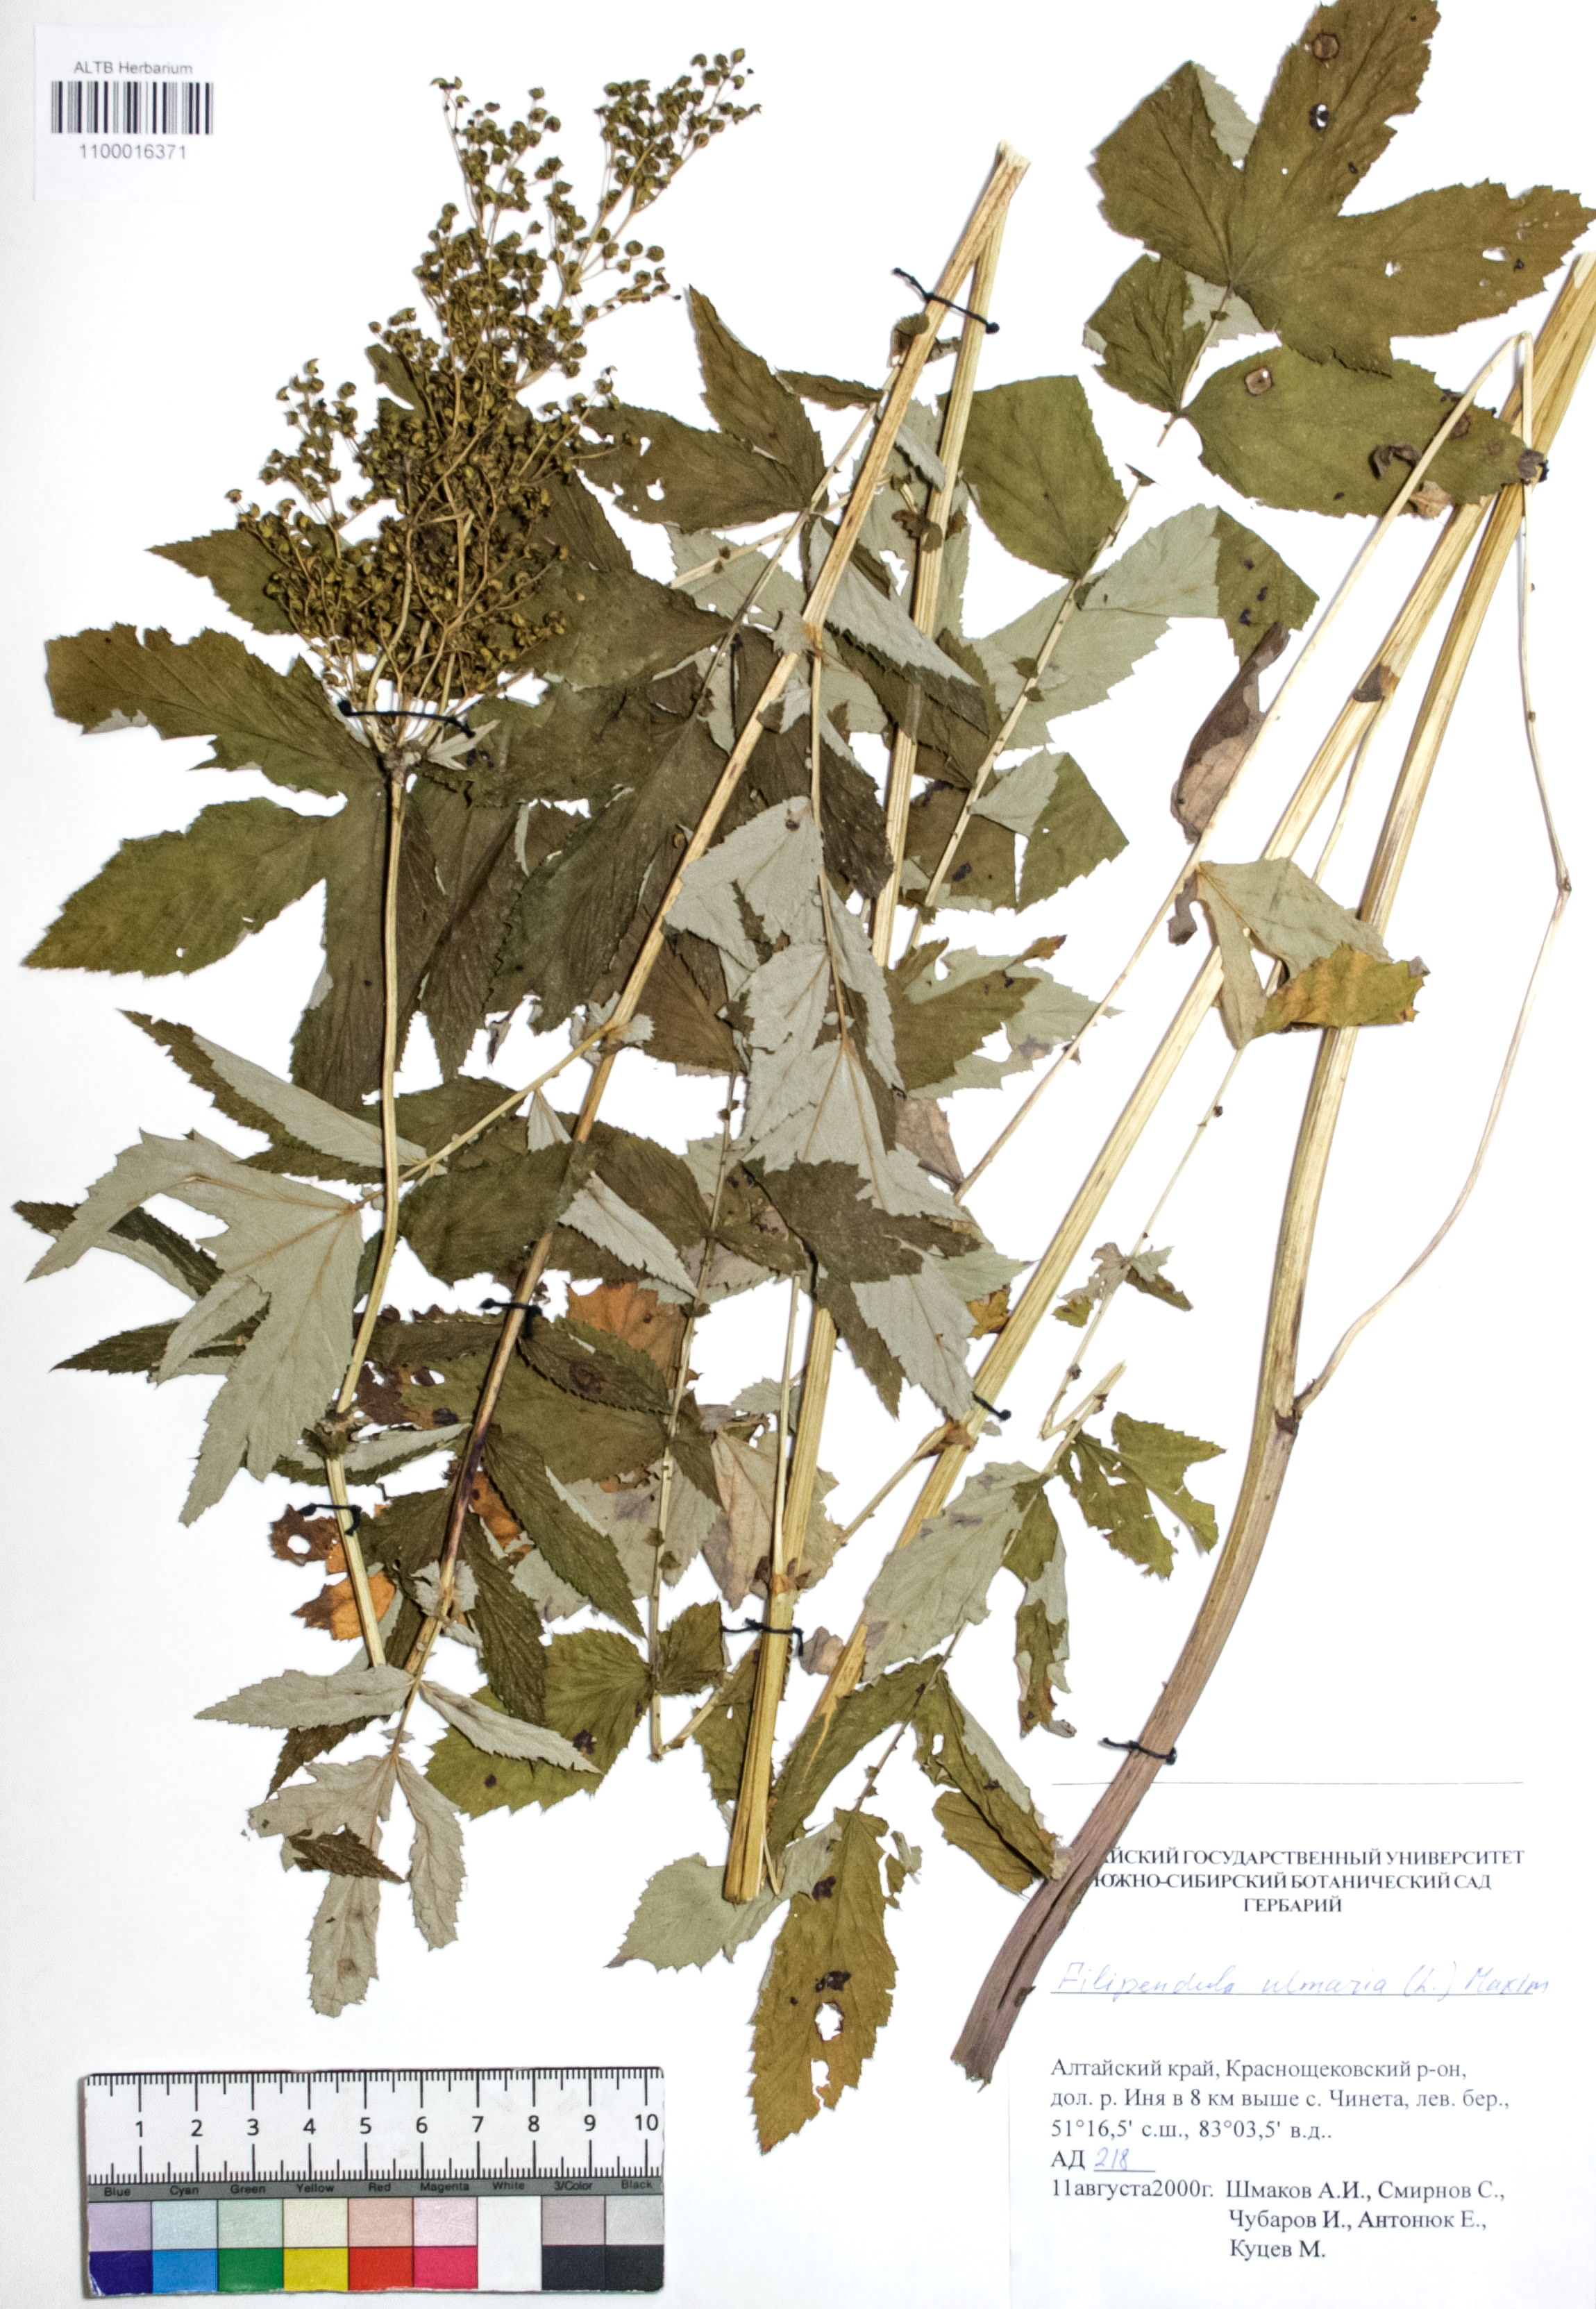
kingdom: Plantae
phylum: Tracheophyta
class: Magnoliopsida
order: Rosales
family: Rosaceae
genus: Filipendula
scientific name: Filipendula ulmaria
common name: Meadowsweet
